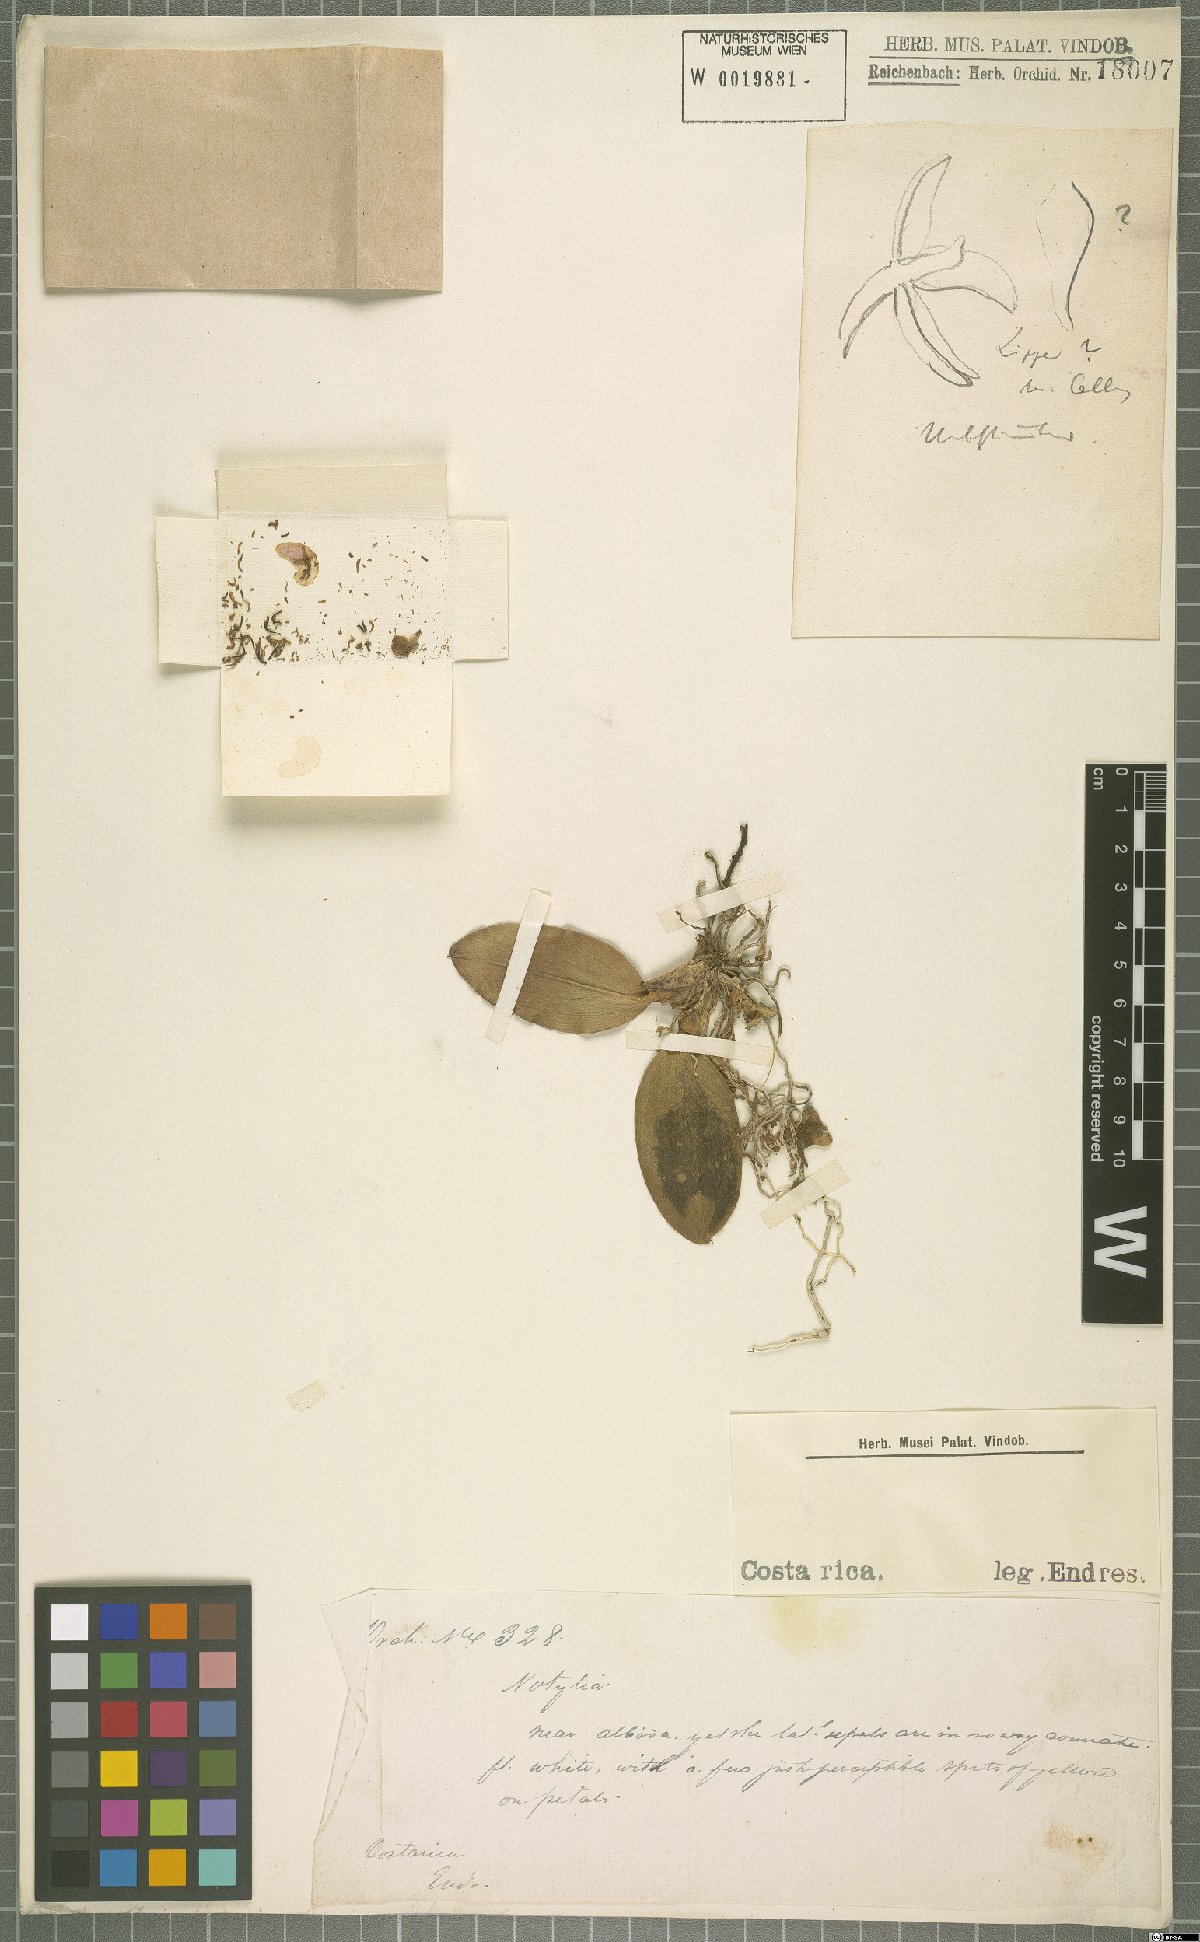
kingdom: Plantae
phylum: Tracheophyta
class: Liliopsida
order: Asparagales
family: Orchidaceae
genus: Notylia
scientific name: Notylia
